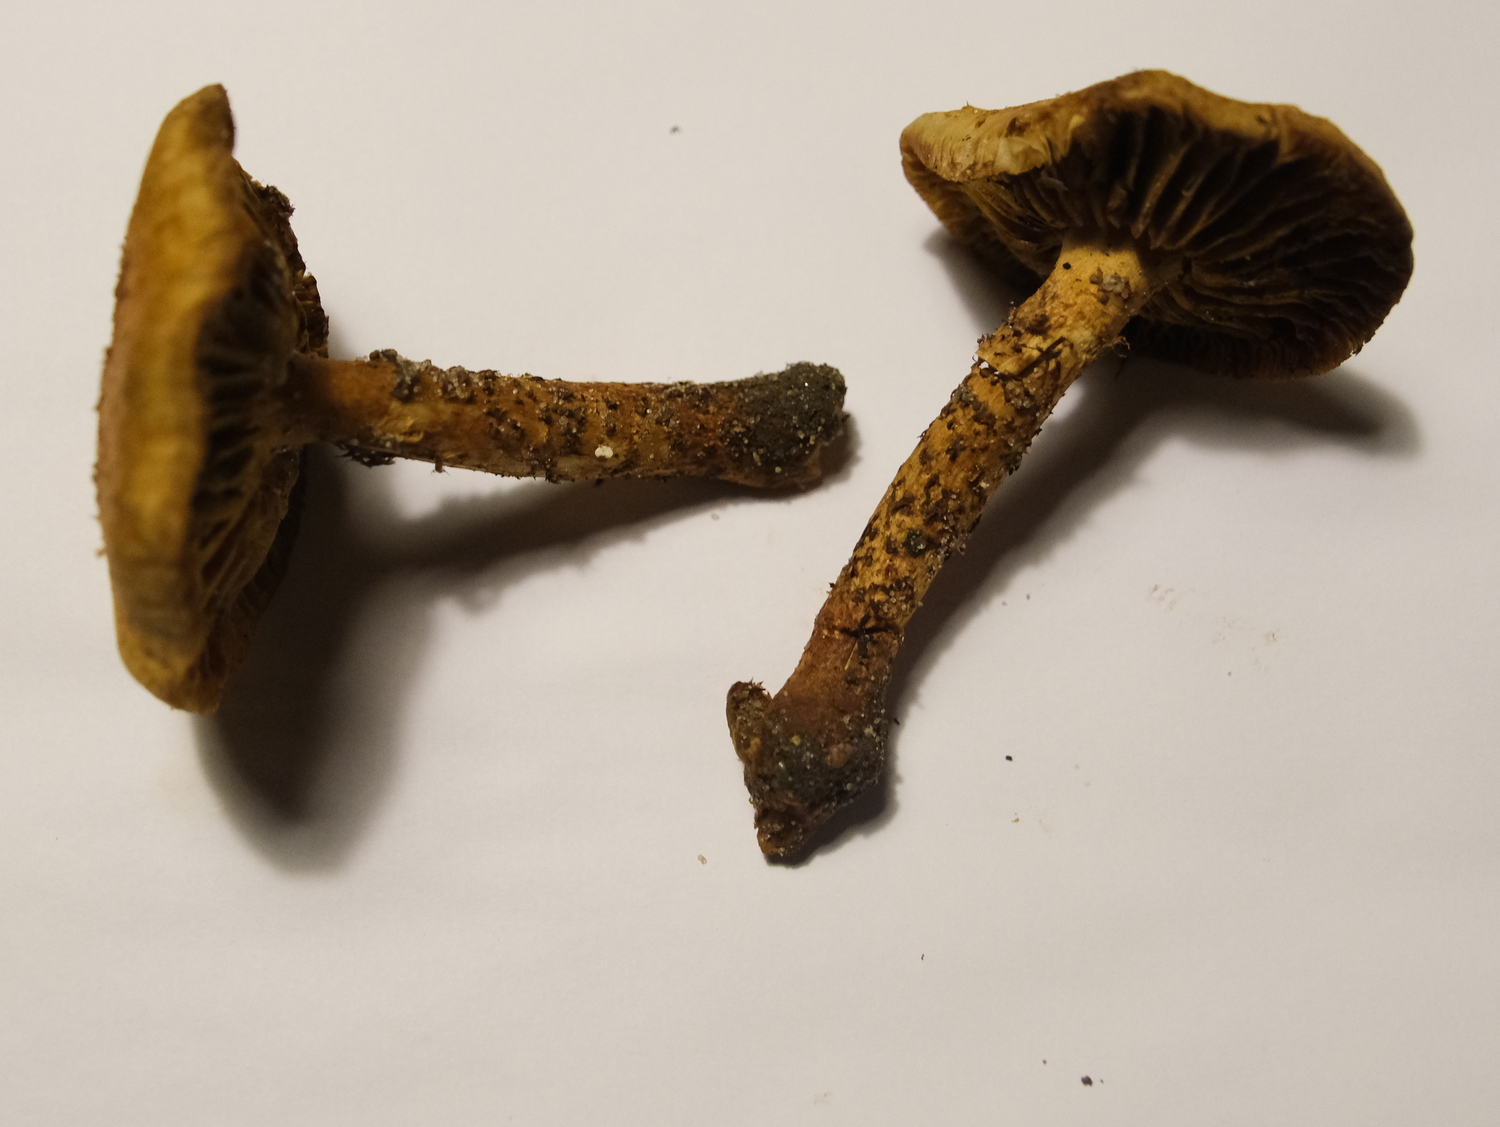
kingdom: Fungi
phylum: Basidiomycota
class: Agaricomycetes
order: Agaricales
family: Strophariaceae
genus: Pholiota
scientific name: Pholiota squarrosa
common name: krumskællet skælhat
